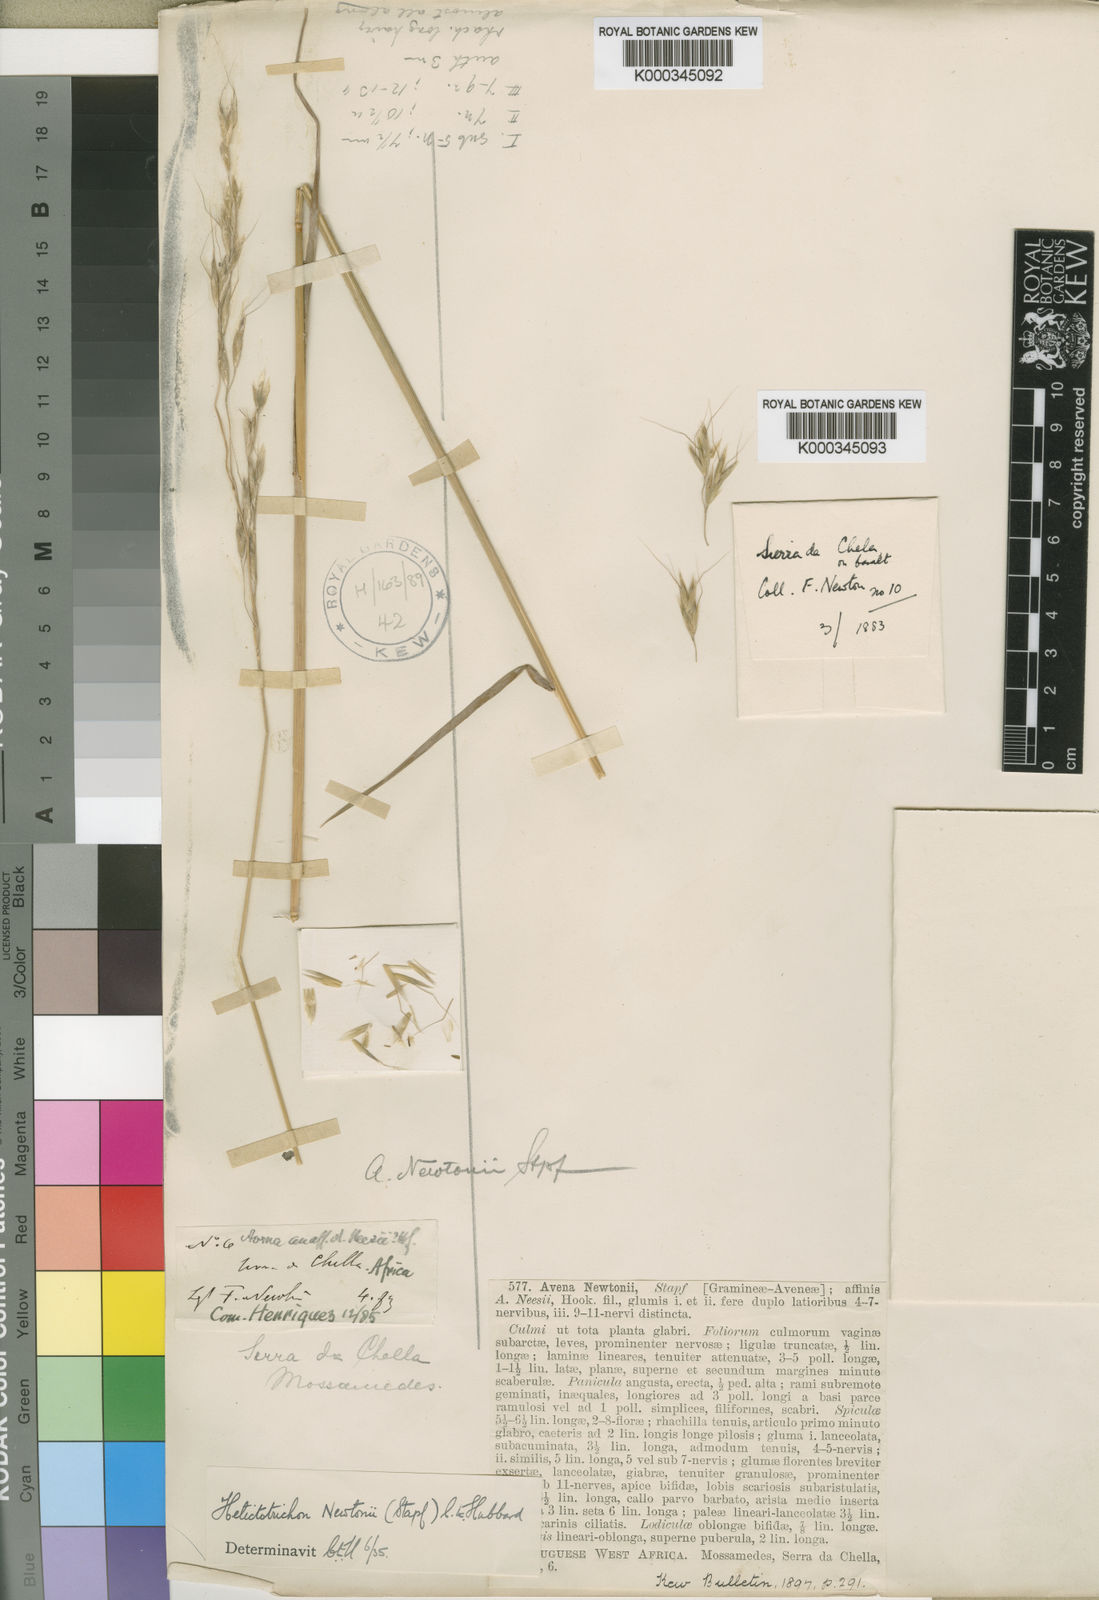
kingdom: Plantae
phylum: Tracheophyta
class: Liliopsida
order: Poales
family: Poaceae
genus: Trisetopsis
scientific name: Trisetopsis newtonii
